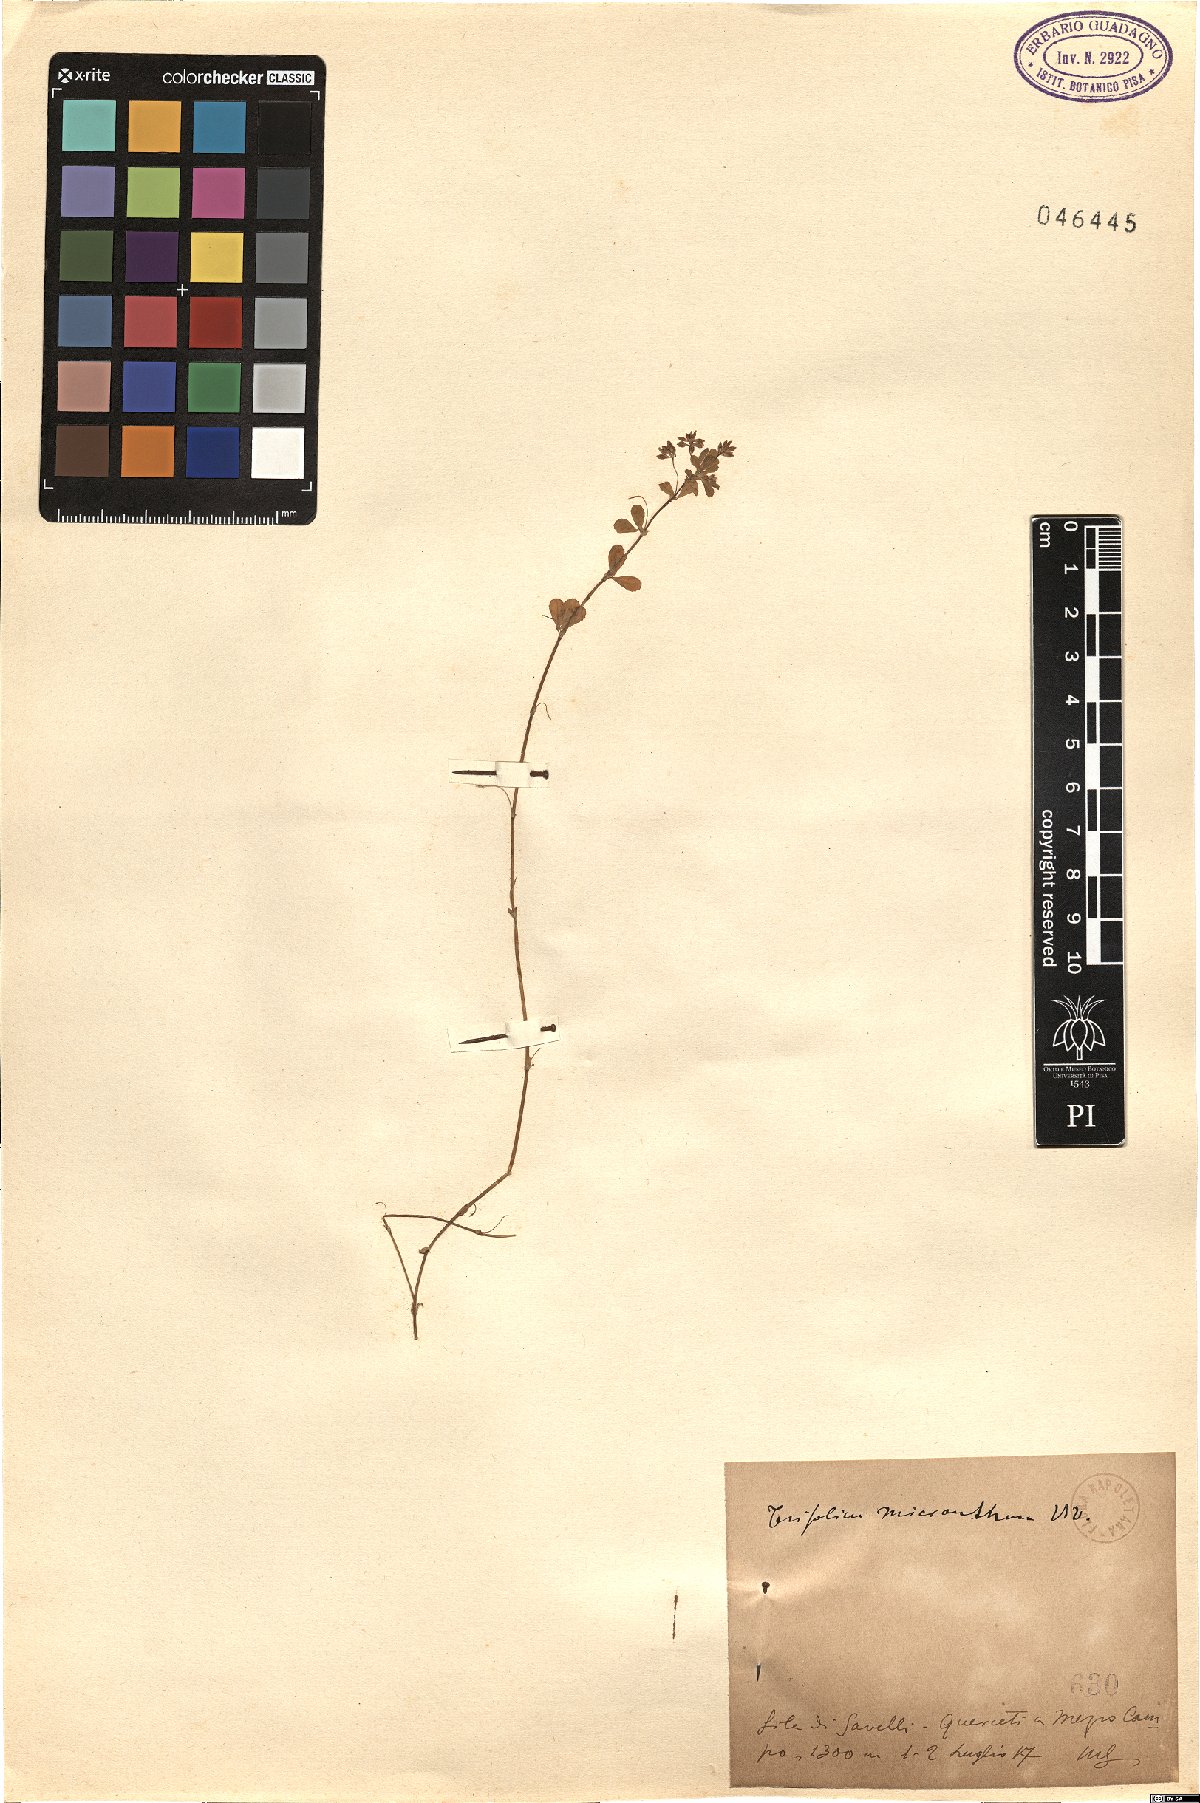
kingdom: Plantae
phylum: Tracheophyta
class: Magnoliopsida
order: Fabales
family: Fabaceae
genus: Trifolium
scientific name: Trifolium micranthum
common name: Slender trefoil
